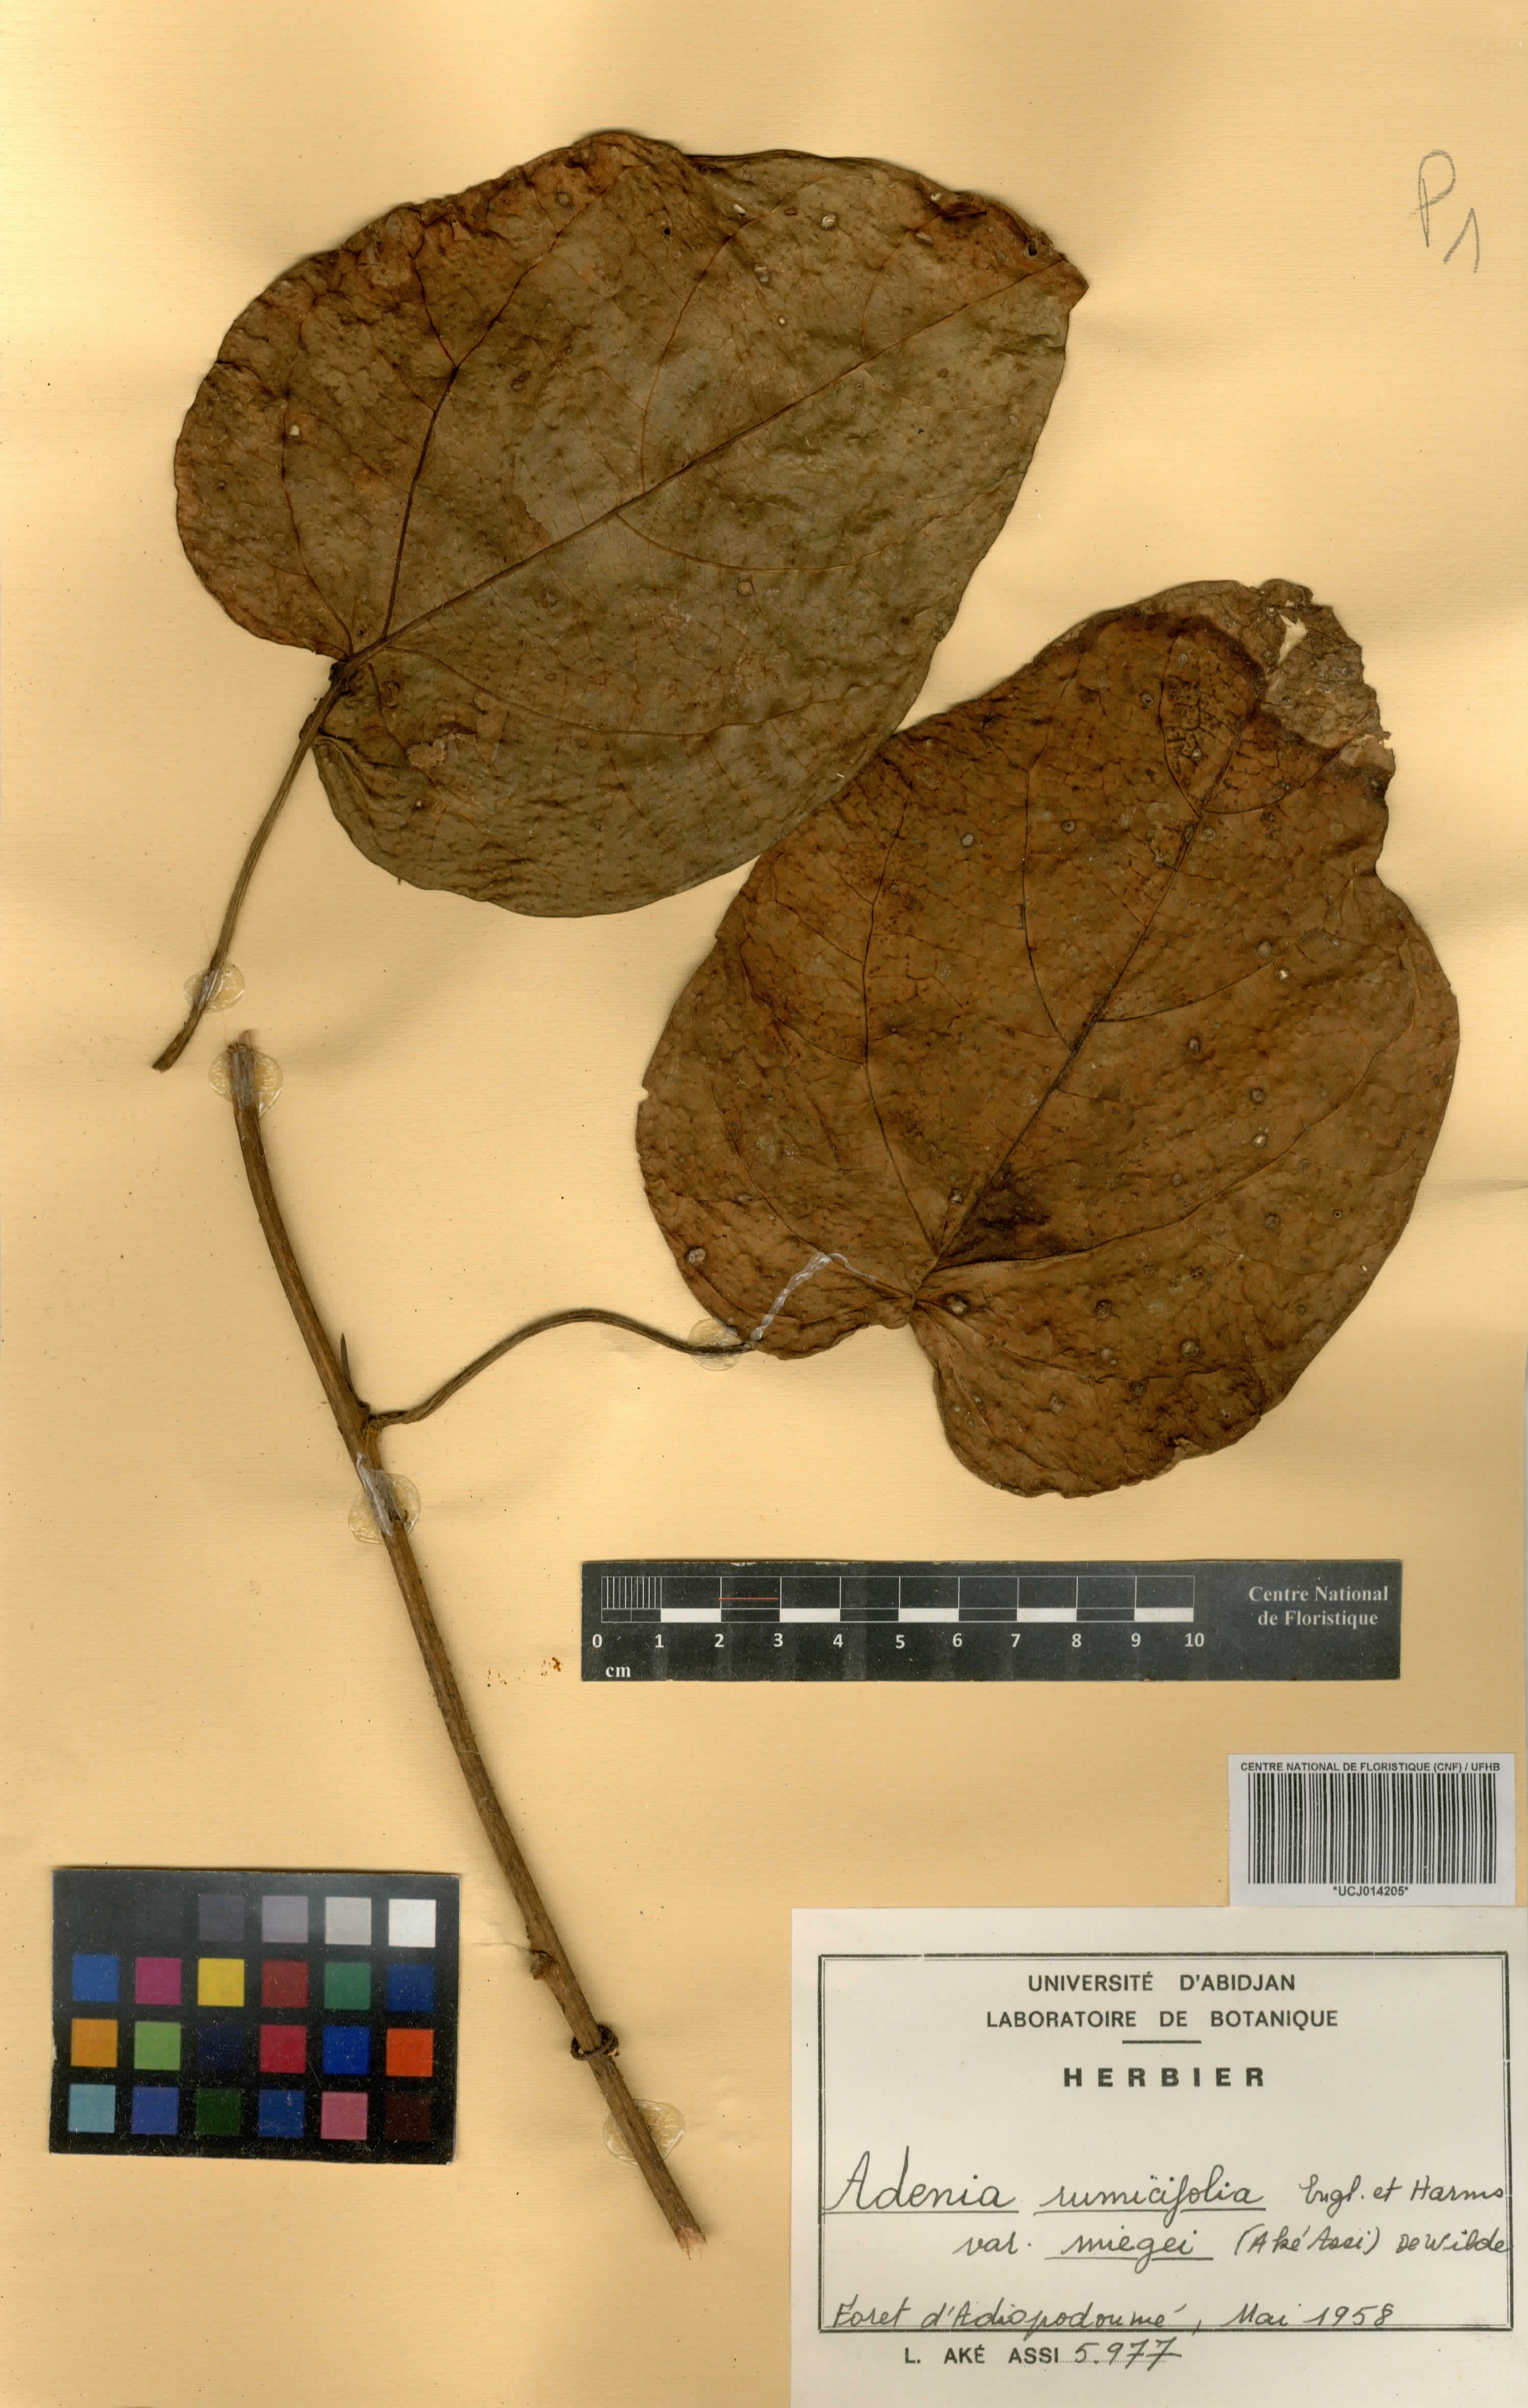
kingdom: Plantae
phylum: Tracheophyta
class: Magnoliopsida
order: Malpighiales
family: Passifloraceae
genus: Adenia
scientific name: Adenia lobata
